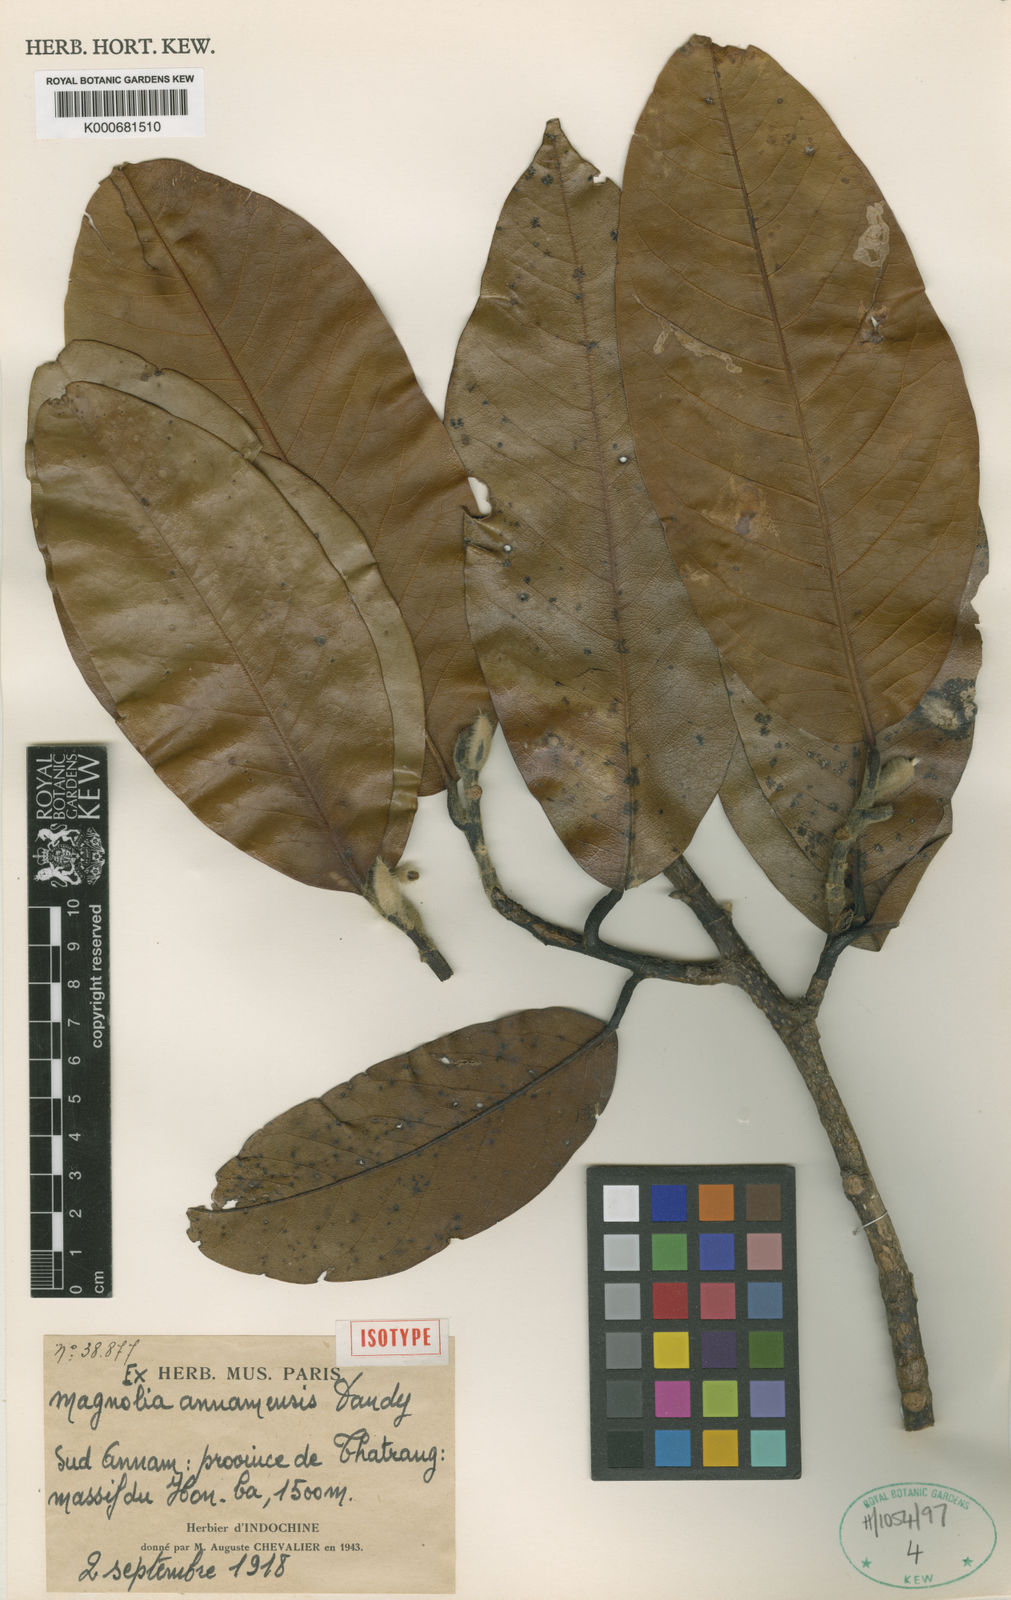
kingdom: Plantae
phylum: Tracheophyta
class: Magnoliopsida
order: Magnoliales
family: Magnoliaceae
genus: Magnolia
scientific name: Magnolia annamensis
